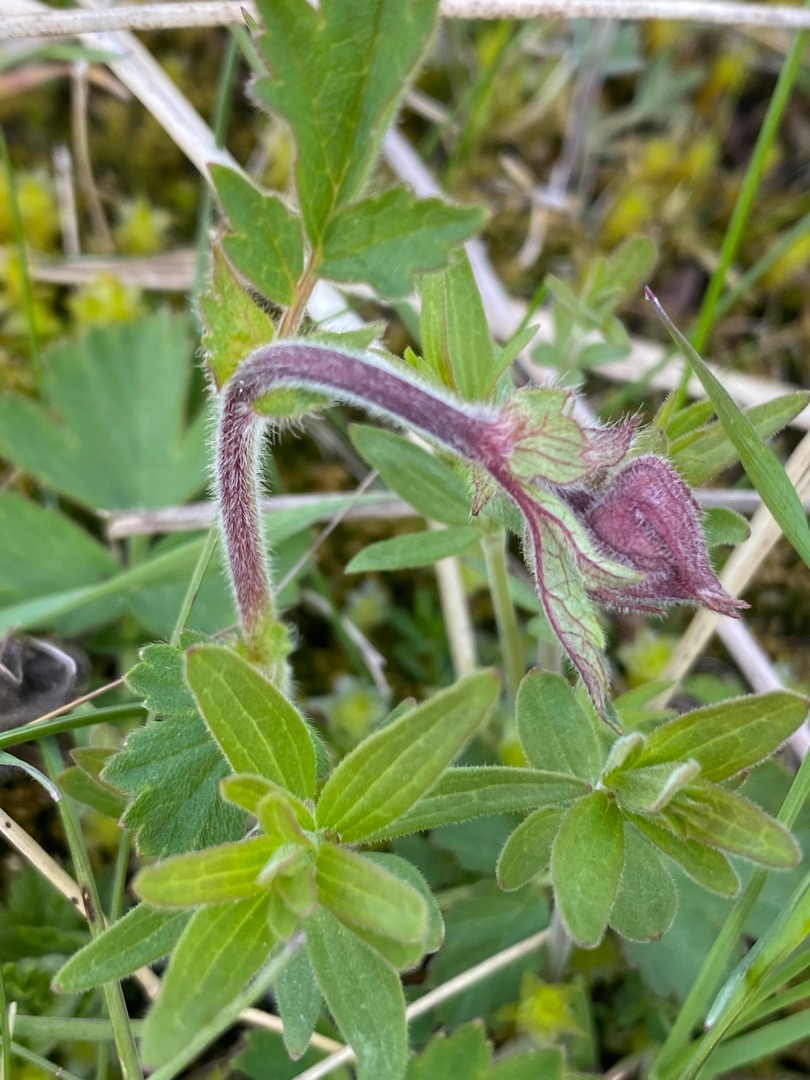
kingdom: Plantae
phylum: Tracheophyta
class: Magnoliopsida
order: Rosales
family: Rosaceae
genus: Geum
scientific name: Geum rivale
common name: Eng-nellikerod
